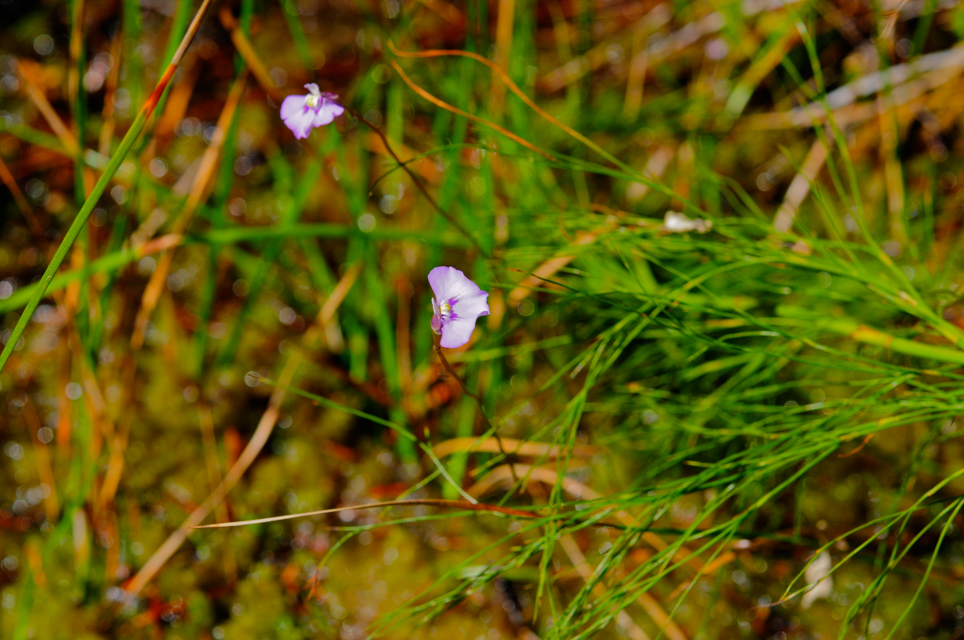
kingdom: Plantae
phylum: Tracheophyta
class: Magnoliopsida
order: Lamiales
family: Lentibulariaceae
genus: Utricularia
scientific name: Utricularia dichotoma
